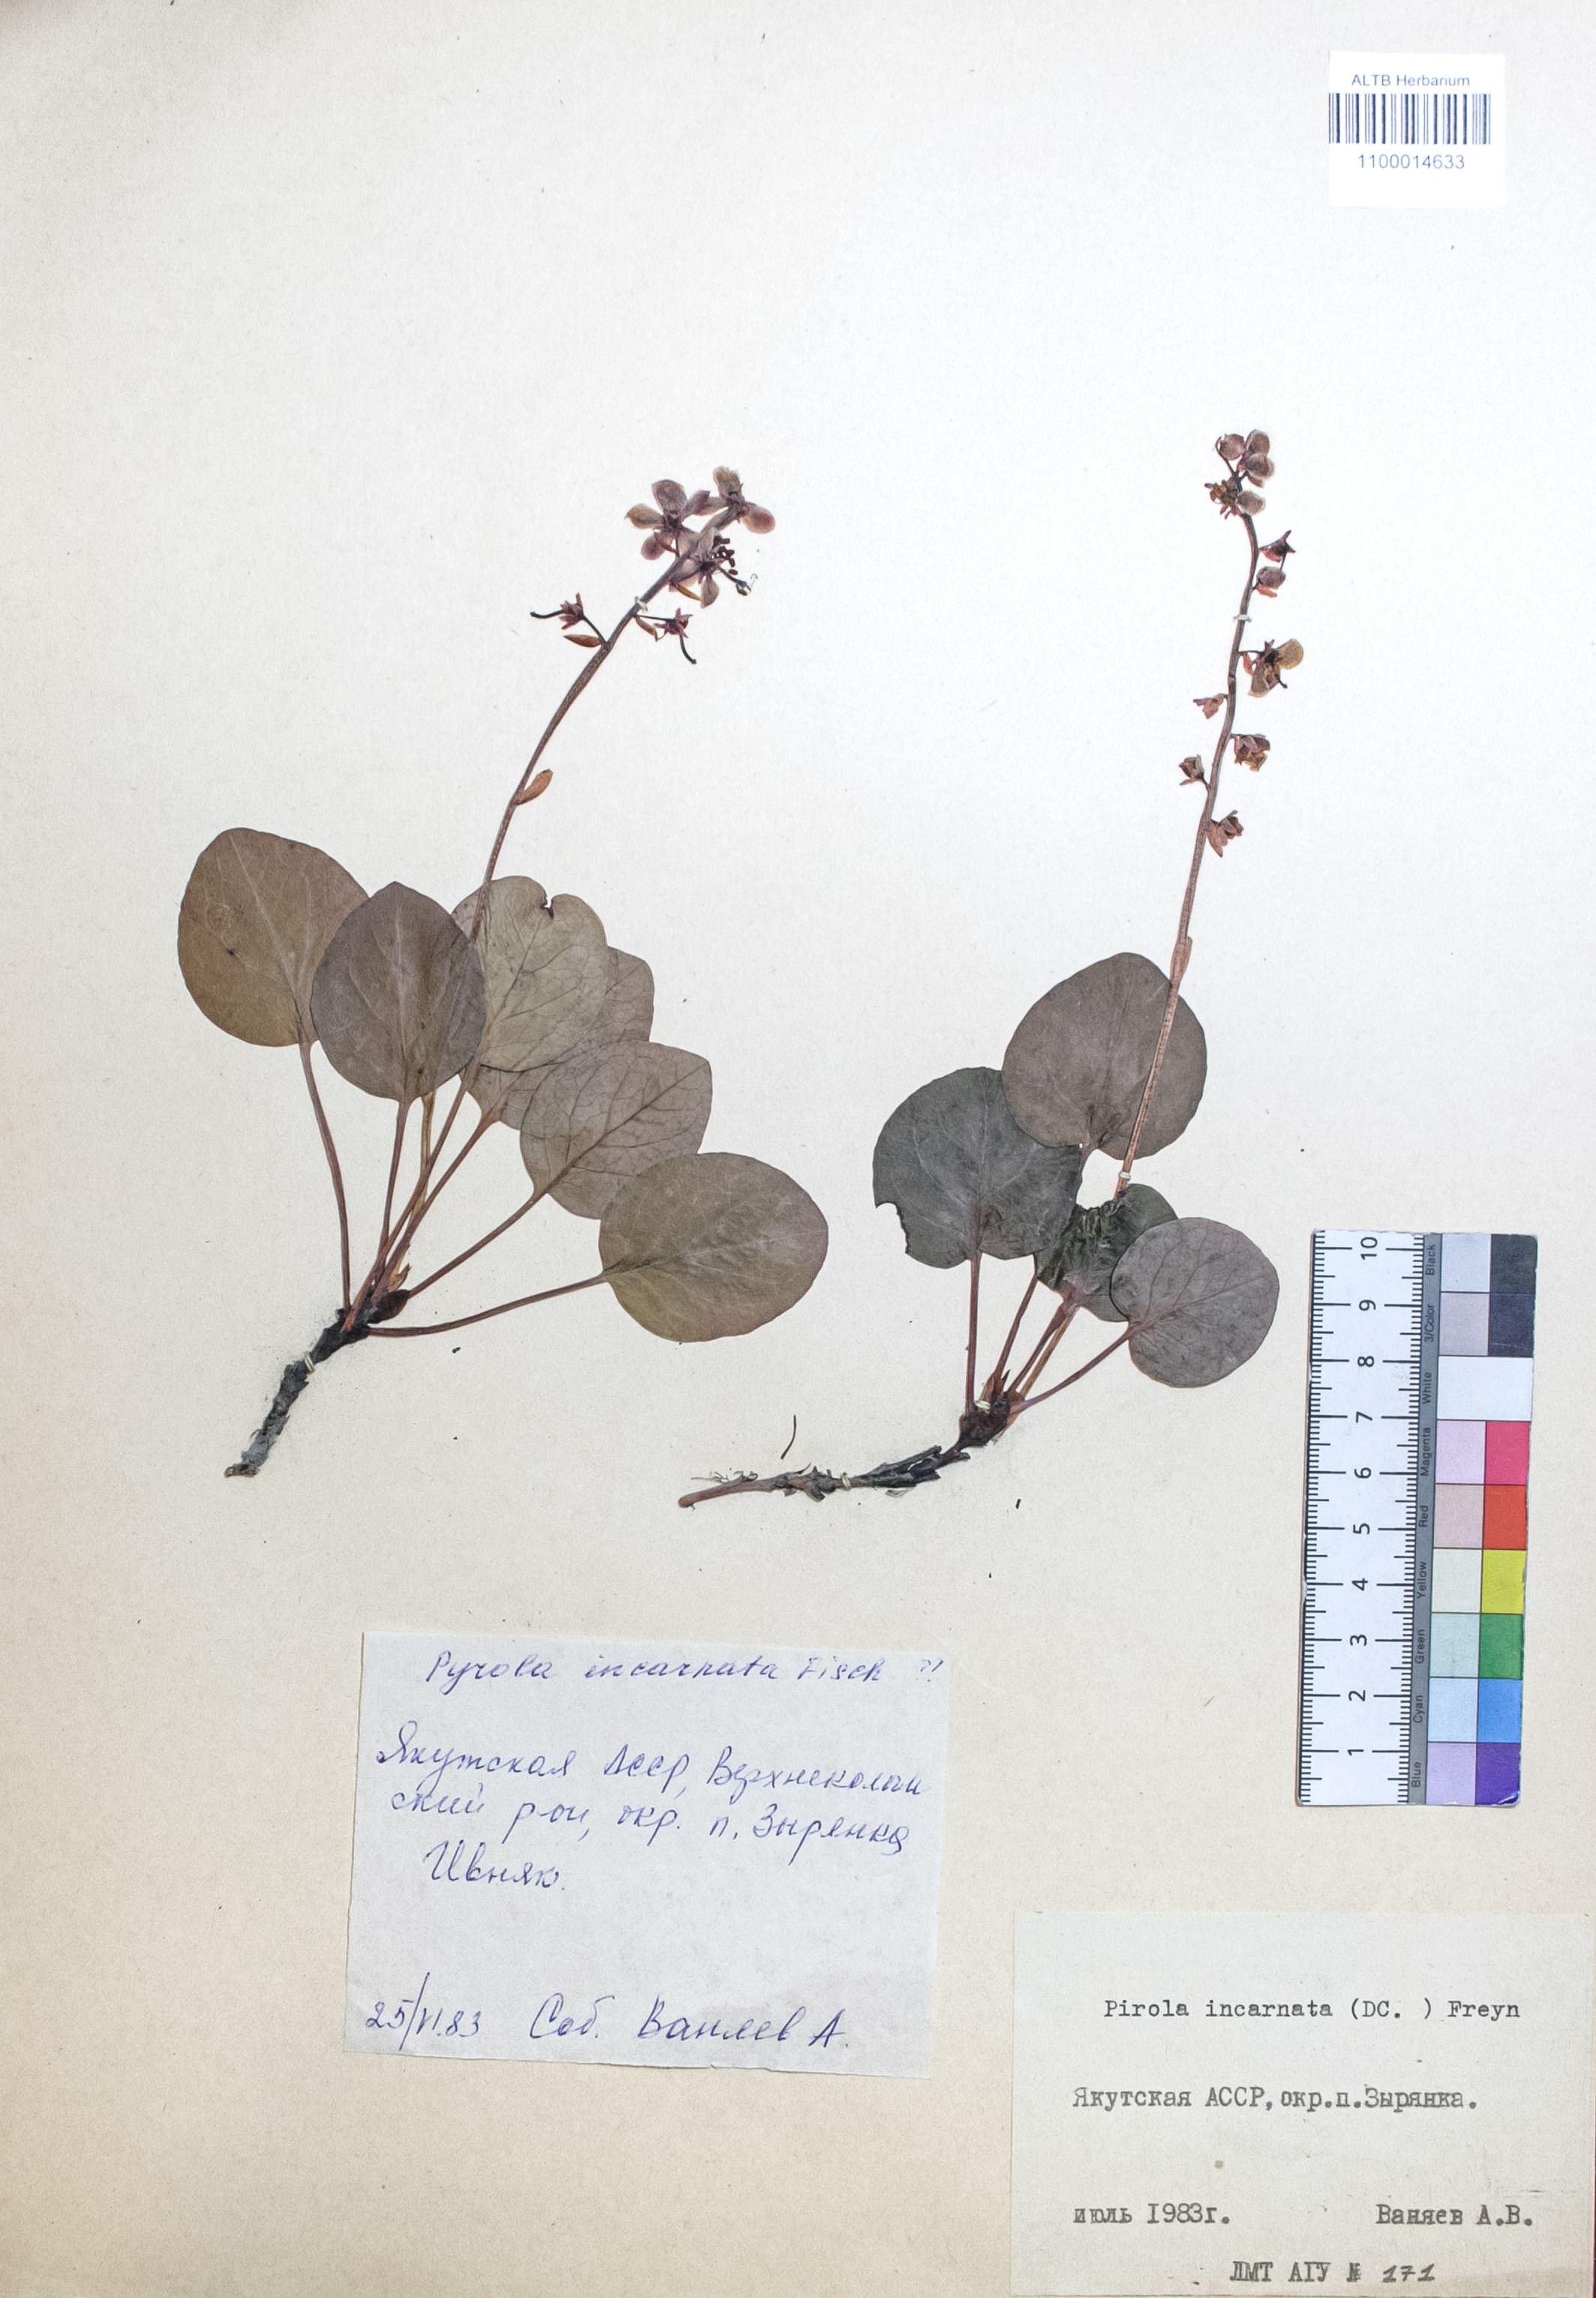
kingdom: Plantae
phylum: Tracheophyta
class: Magnoliopsida
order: Ericales
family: Ericaceae
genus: Pyrola
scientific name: Pyrola asarifolia
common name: Bog wintergreen
